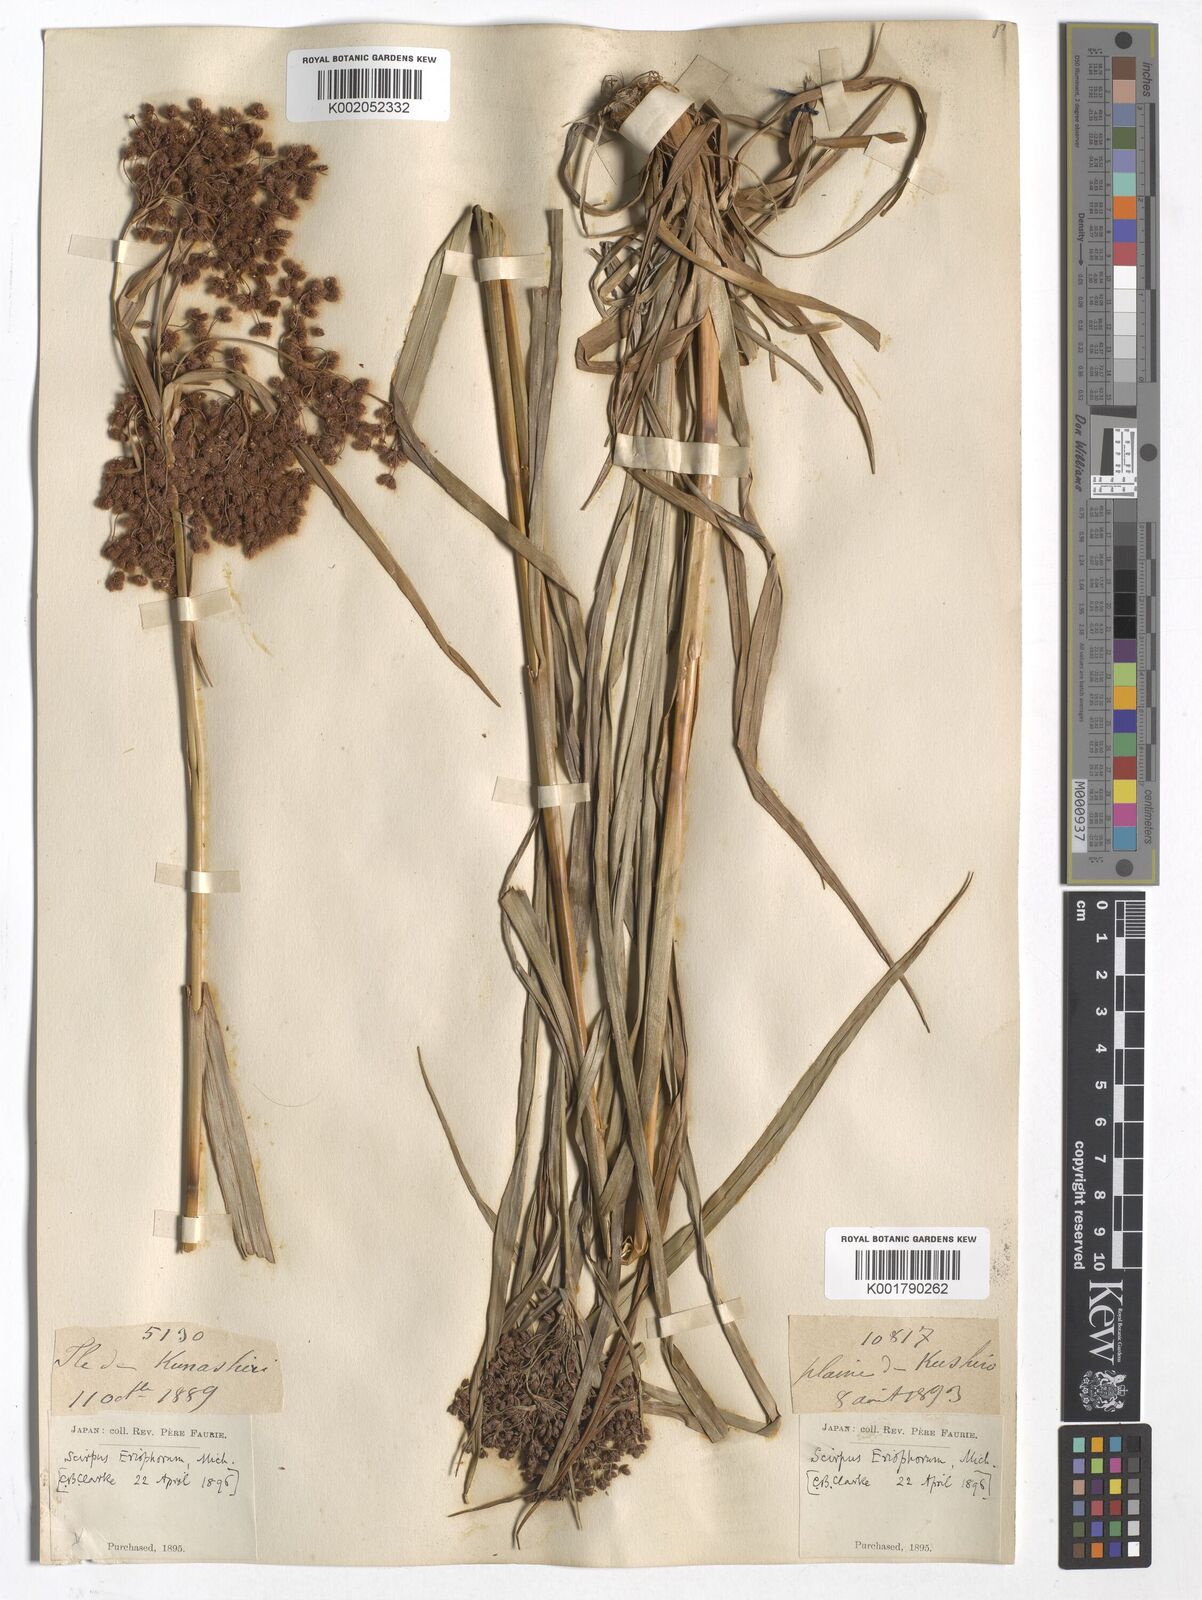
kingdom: Plantae
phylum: Tracheophyta
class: Liliopsida
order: Poales
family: Cyperaceae
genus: Scirpus
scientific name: Scirpus cyperinus
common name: Black-sheathed bulrush
